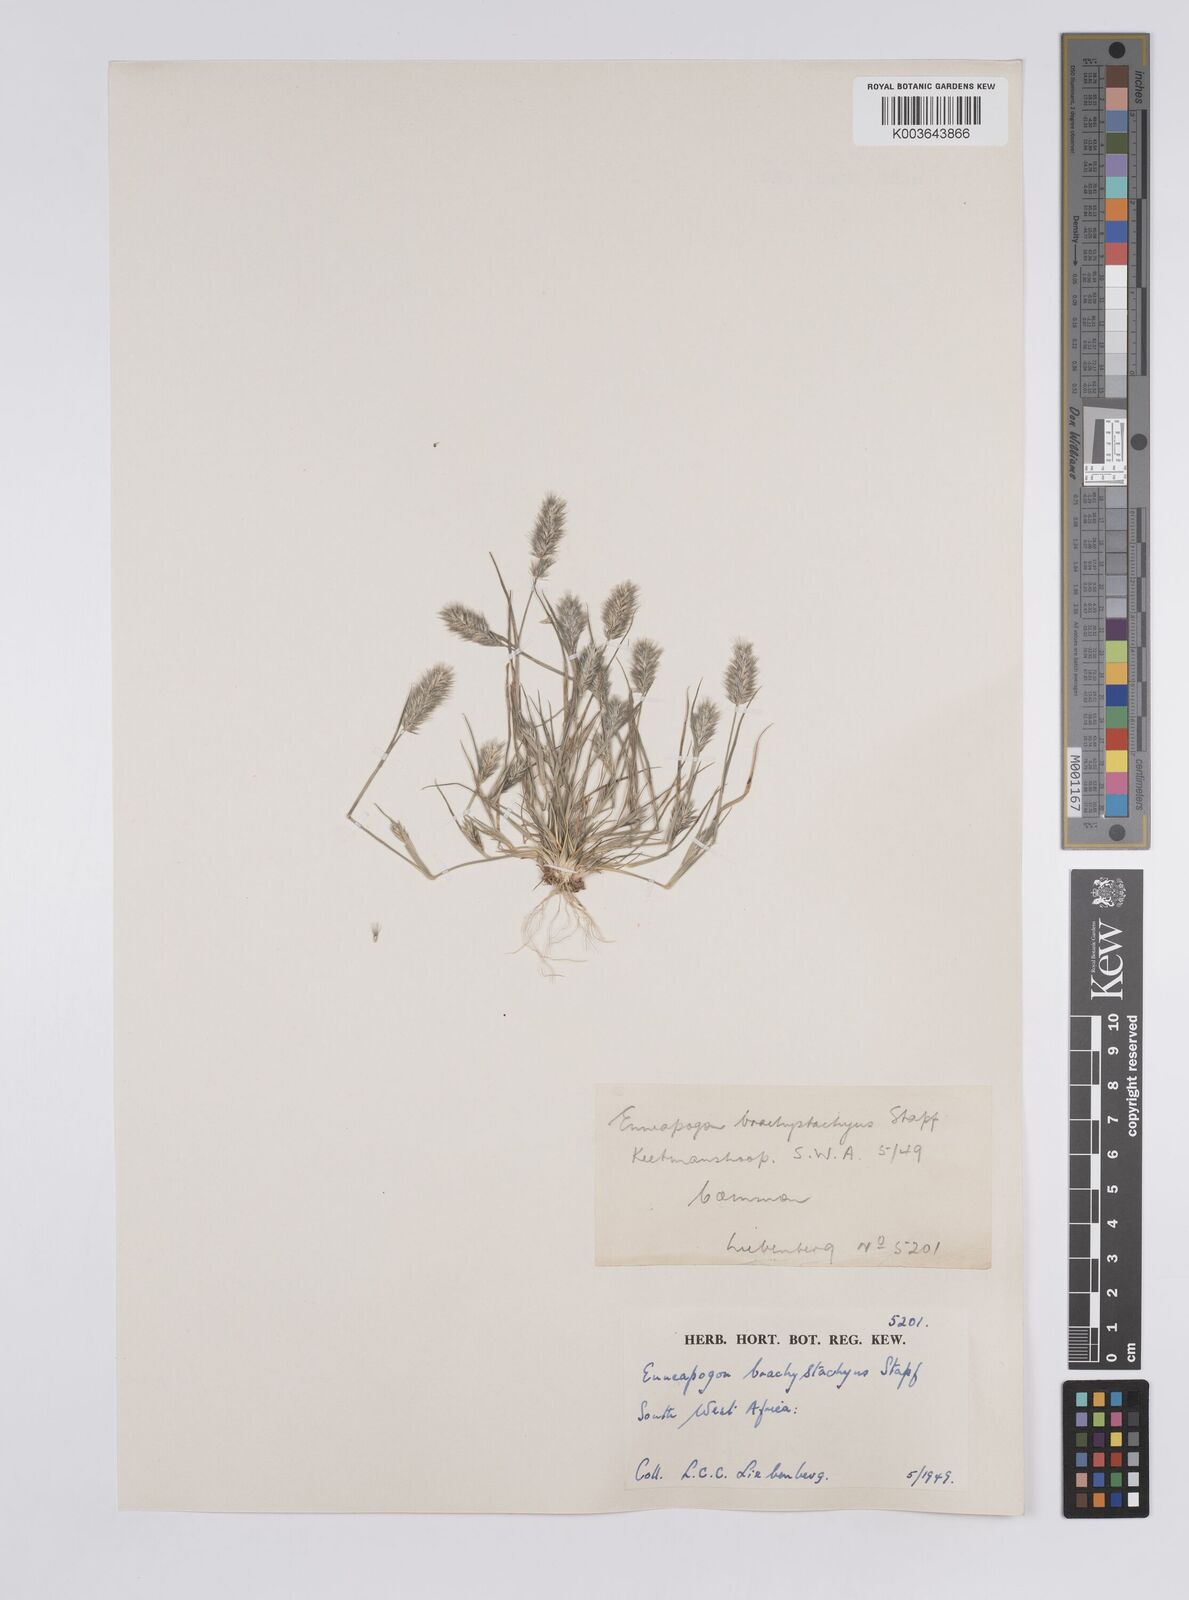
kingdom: Plantae
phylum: Tracheophyta
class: Liliopsida
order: Poales
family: Poaceae
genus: Enneapogon
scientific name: Enneapogon desvauxii
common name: Feather pappus grass
